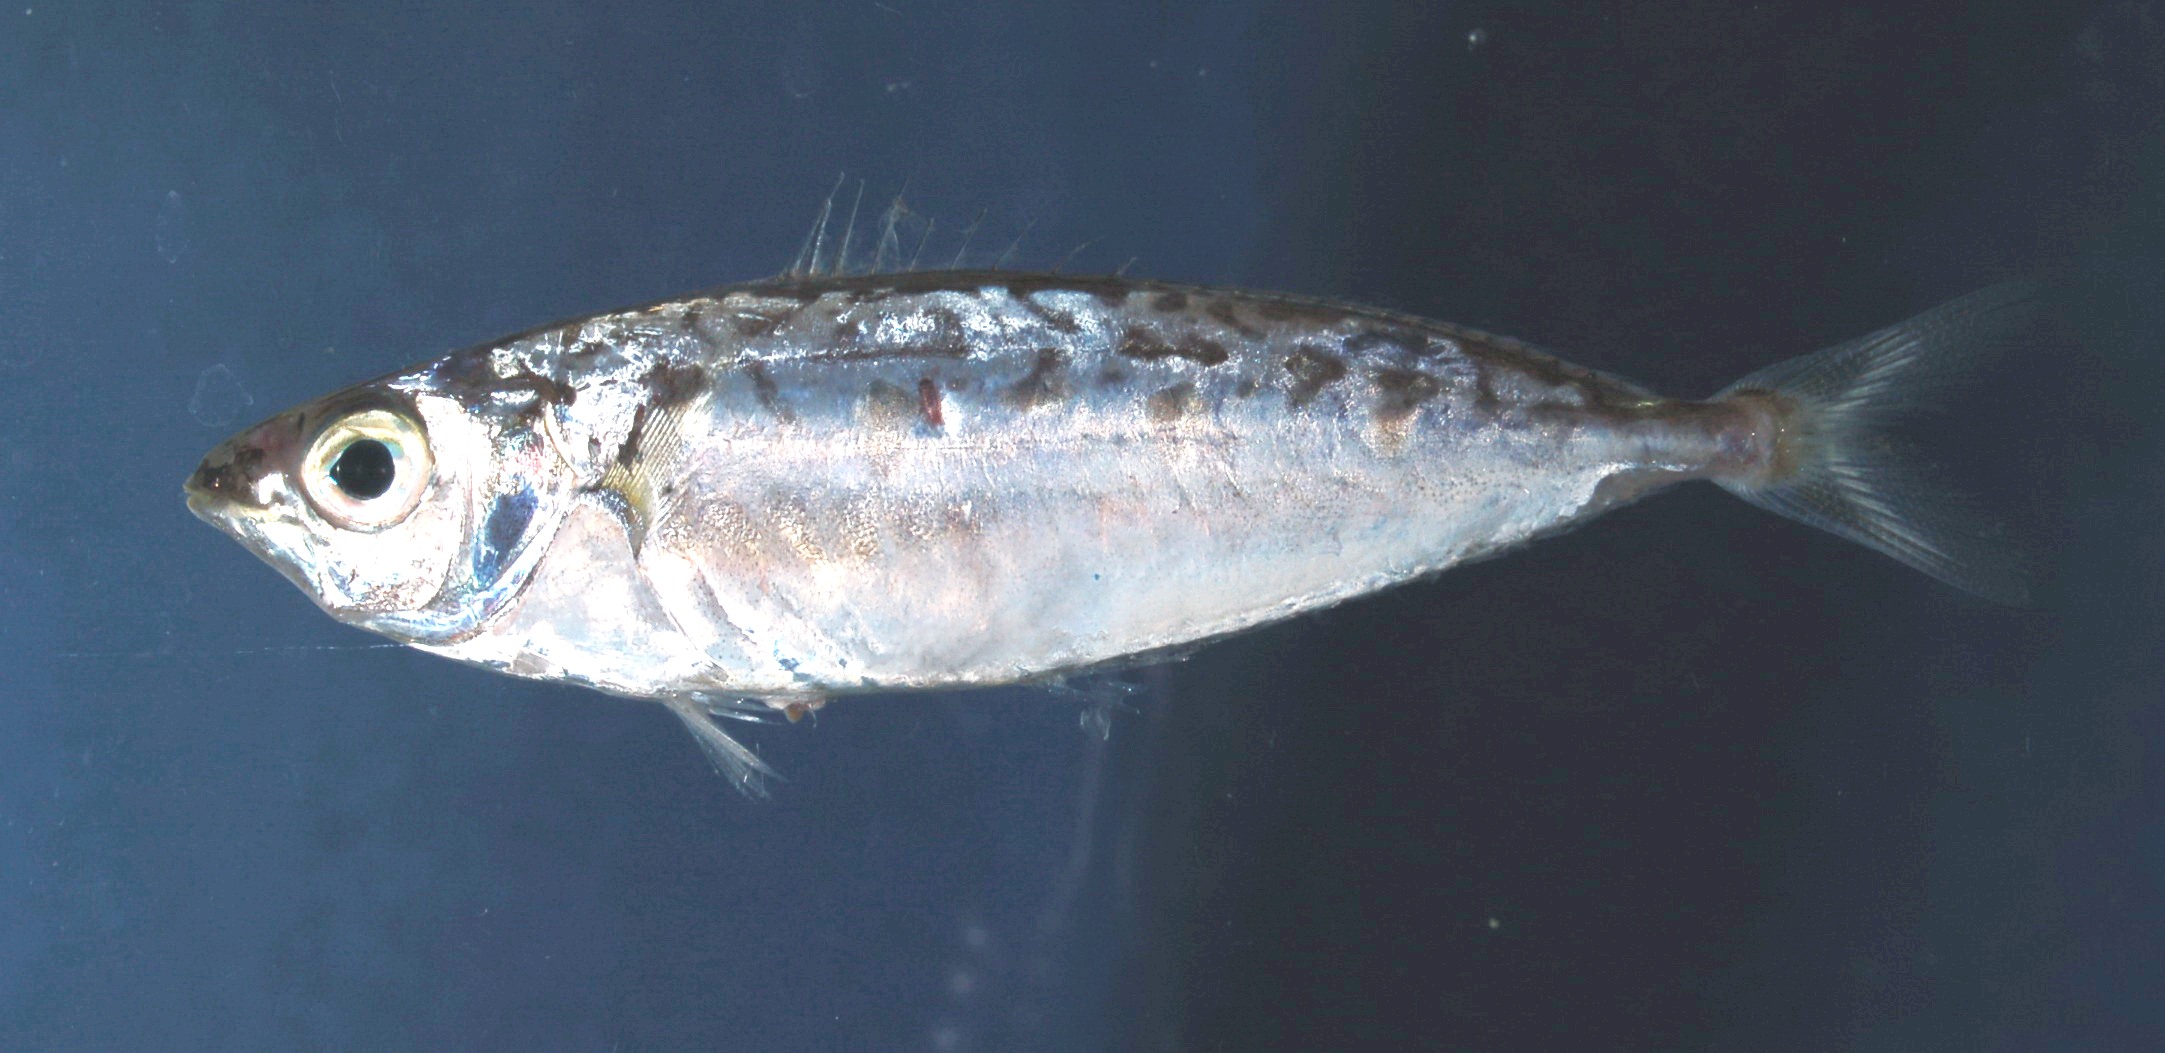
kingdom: Animalia
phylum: Chordata
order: Perciformes
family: Leiognathidae
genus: Equulites
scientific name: Equulites elongatus
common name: Slender ponyfish
